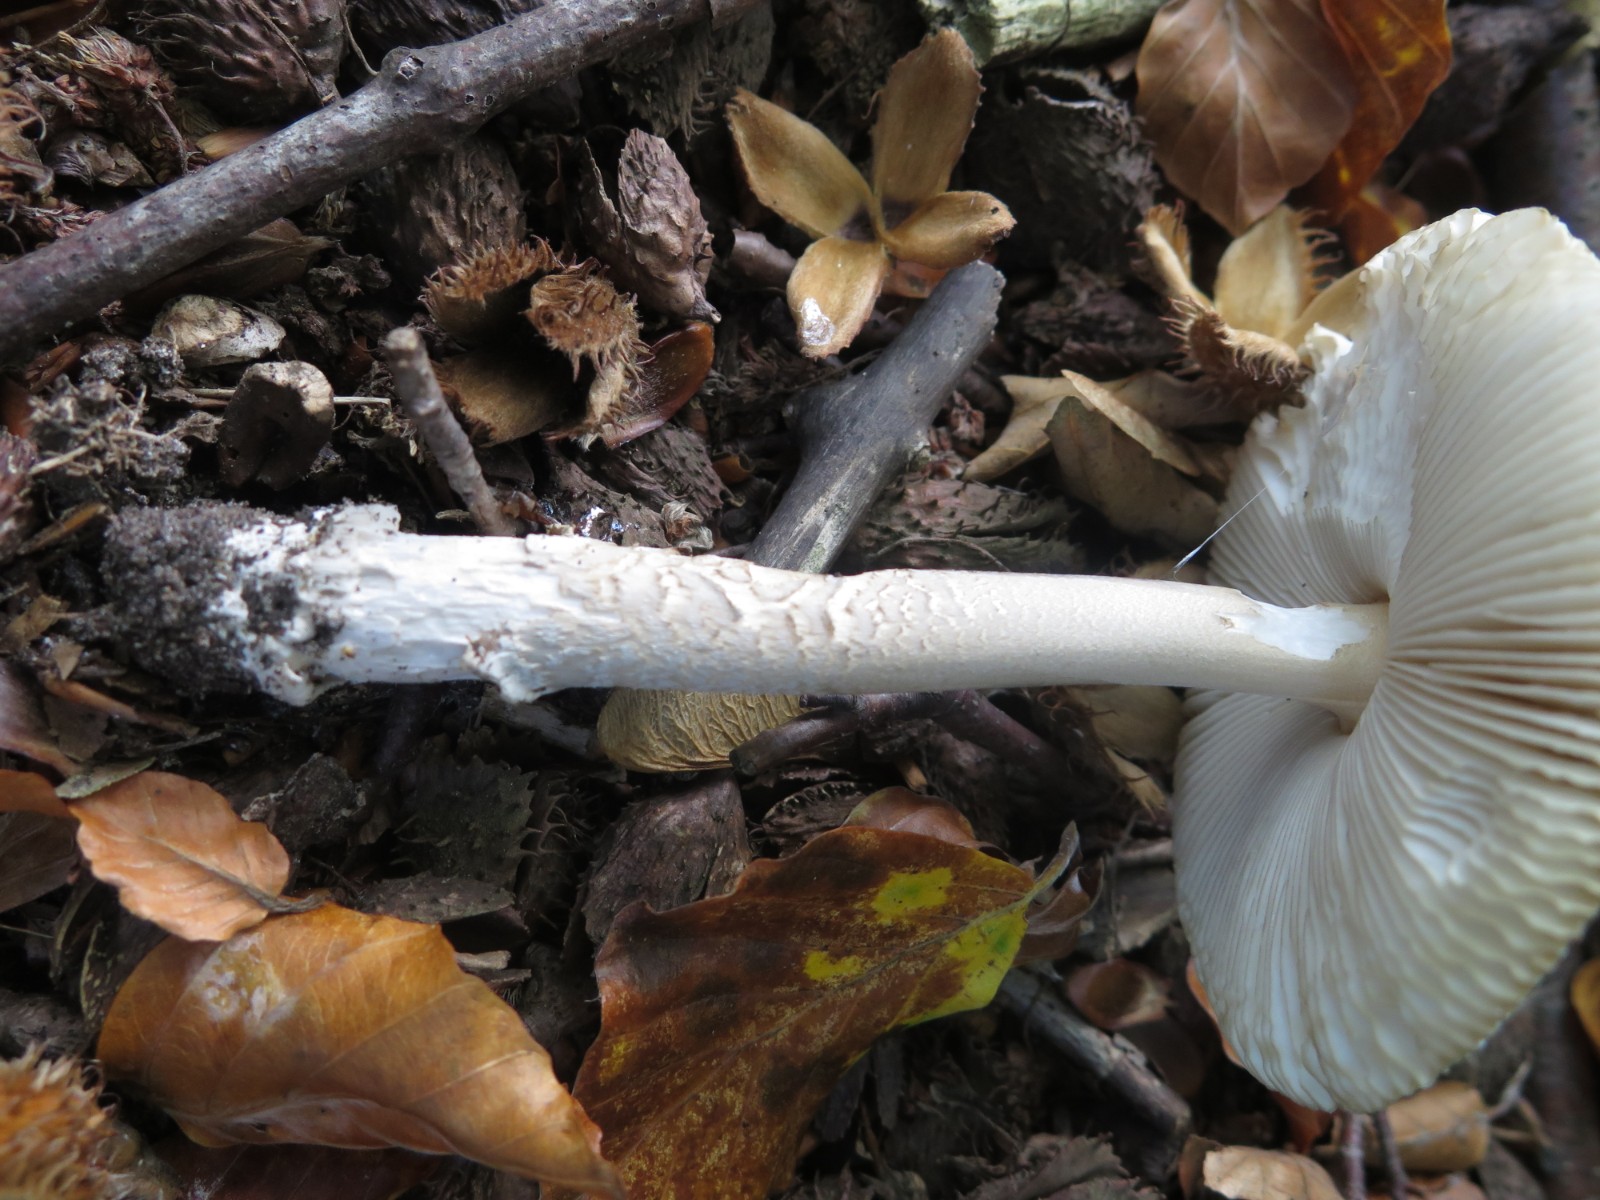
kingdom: Fungi
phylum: Basidiomycota
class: Agaricomycetes
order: Agaricales
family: Amanitaceae
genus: Amanita
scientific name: Amanita vaginata
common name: grå kam-fluesvamp
